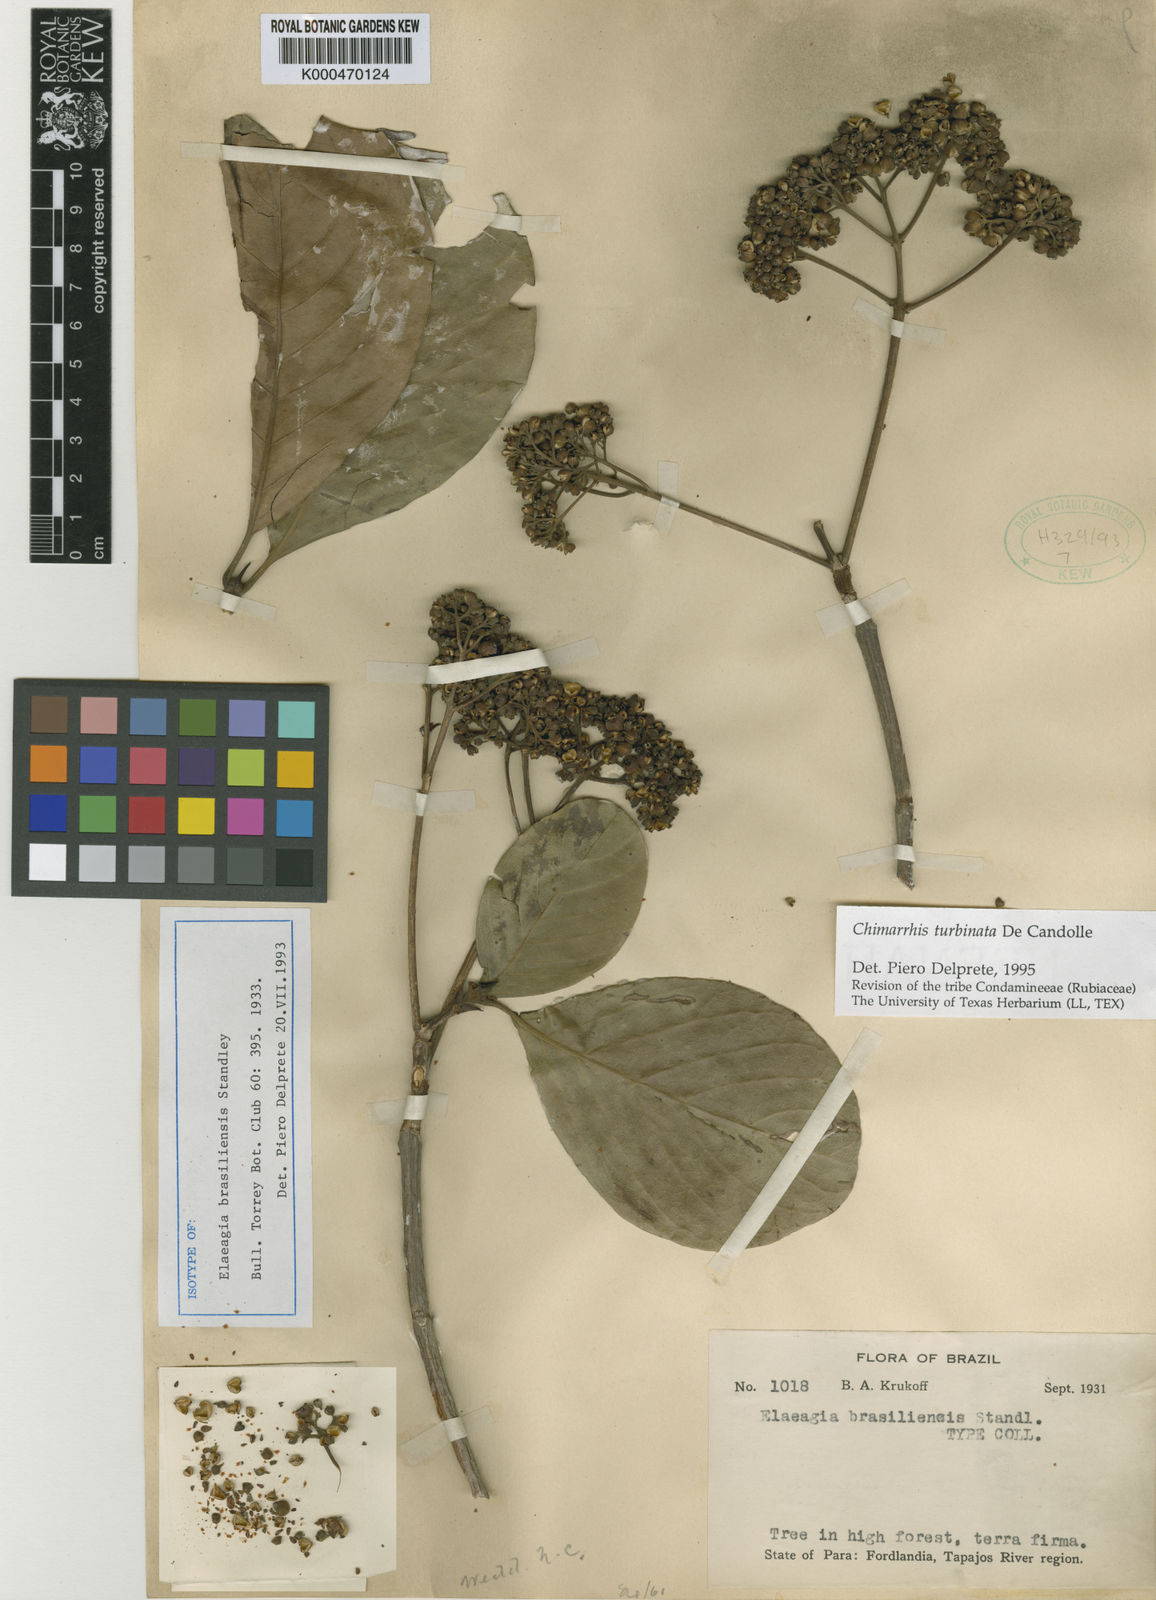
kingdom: Plantae
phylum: Tracheophyta
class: Magnoliopsida
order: Gentianales
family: Rubiaceae
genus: Chimarrhis
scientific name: Chimarrhis turbinata
